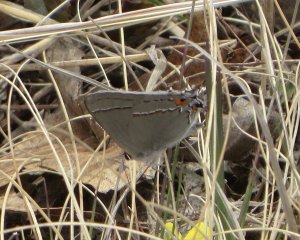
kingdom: Animalia
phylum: Arthropoda
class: Insecta
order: Lepidoptera
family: Lycaenidae
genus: Strymon
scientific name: Strymon melinus
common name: Gray Hairstreak
